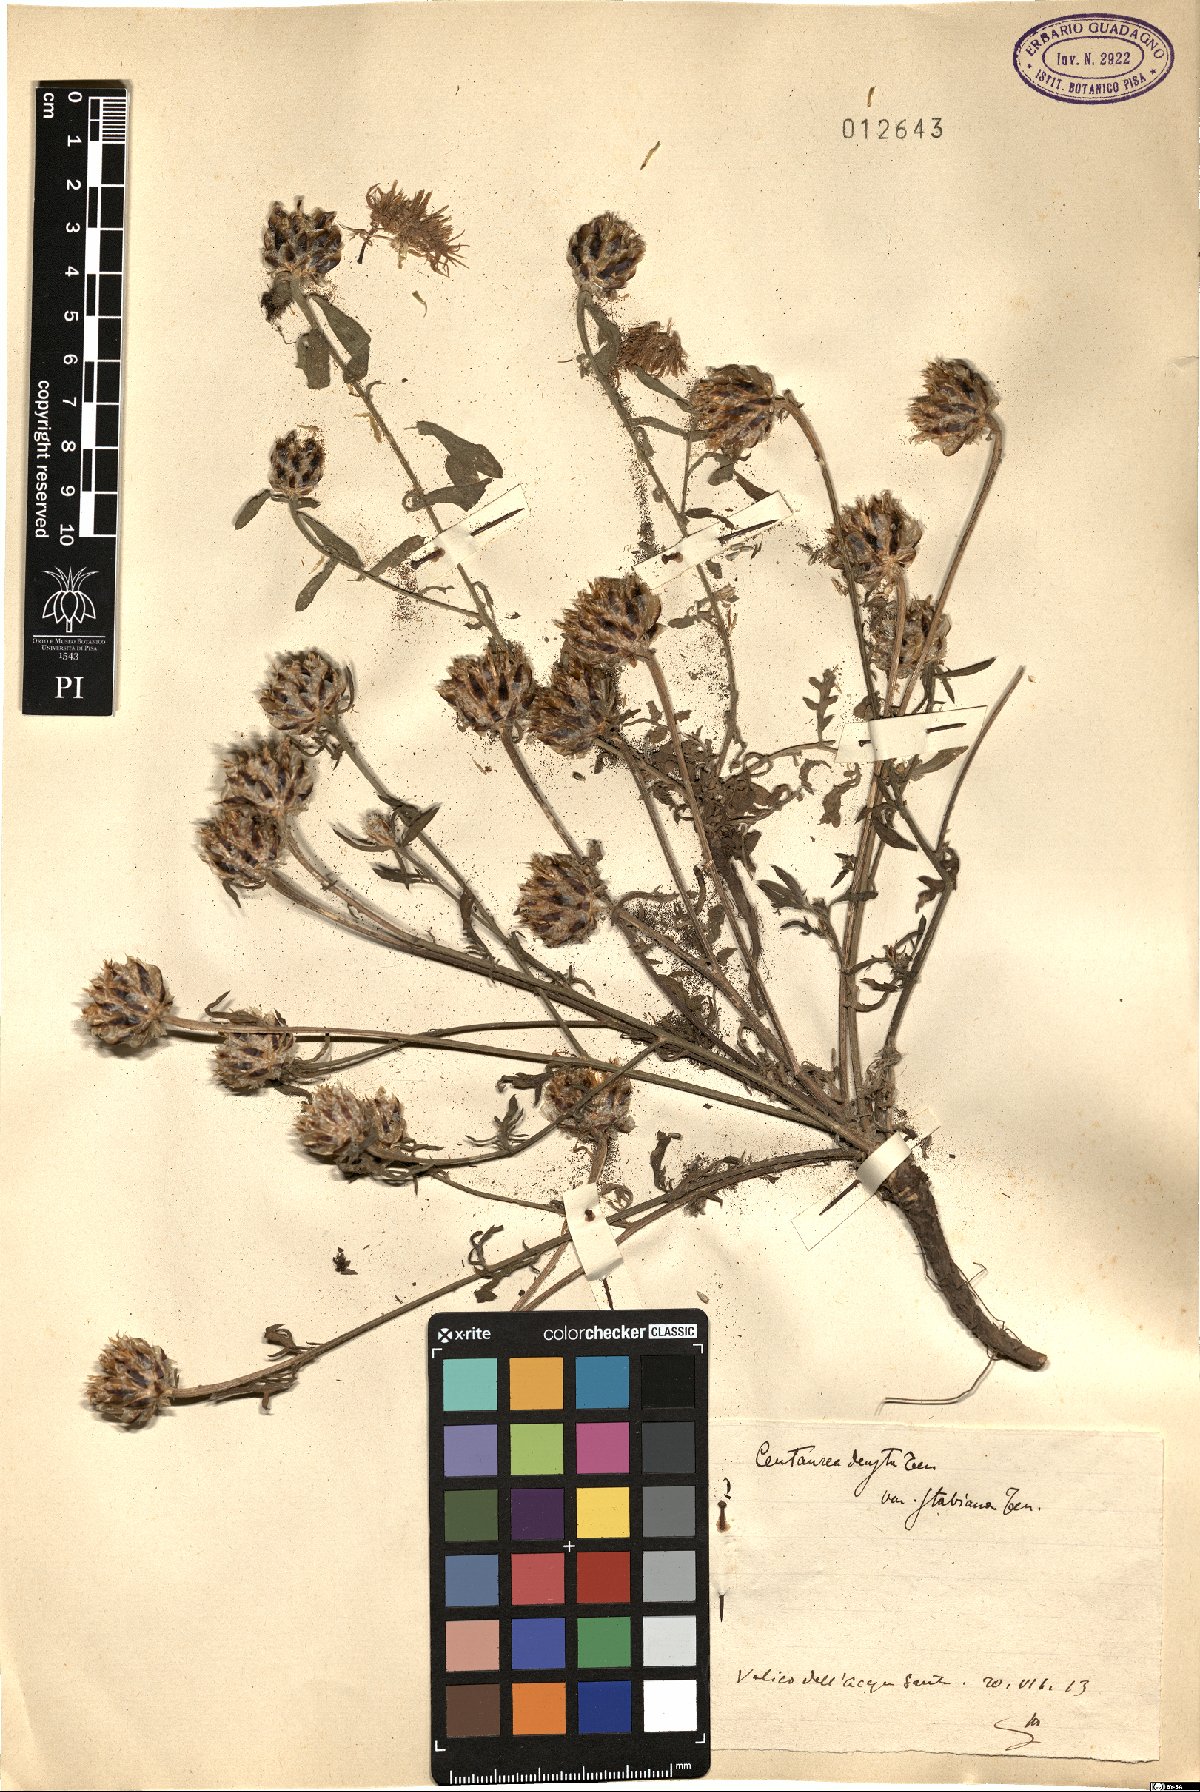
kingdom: Plantae
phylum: Tracheophyta
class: Magnoliopsida
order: Asterales
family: Asteraceae
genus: Centaurea
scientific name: Centaurea deusta
